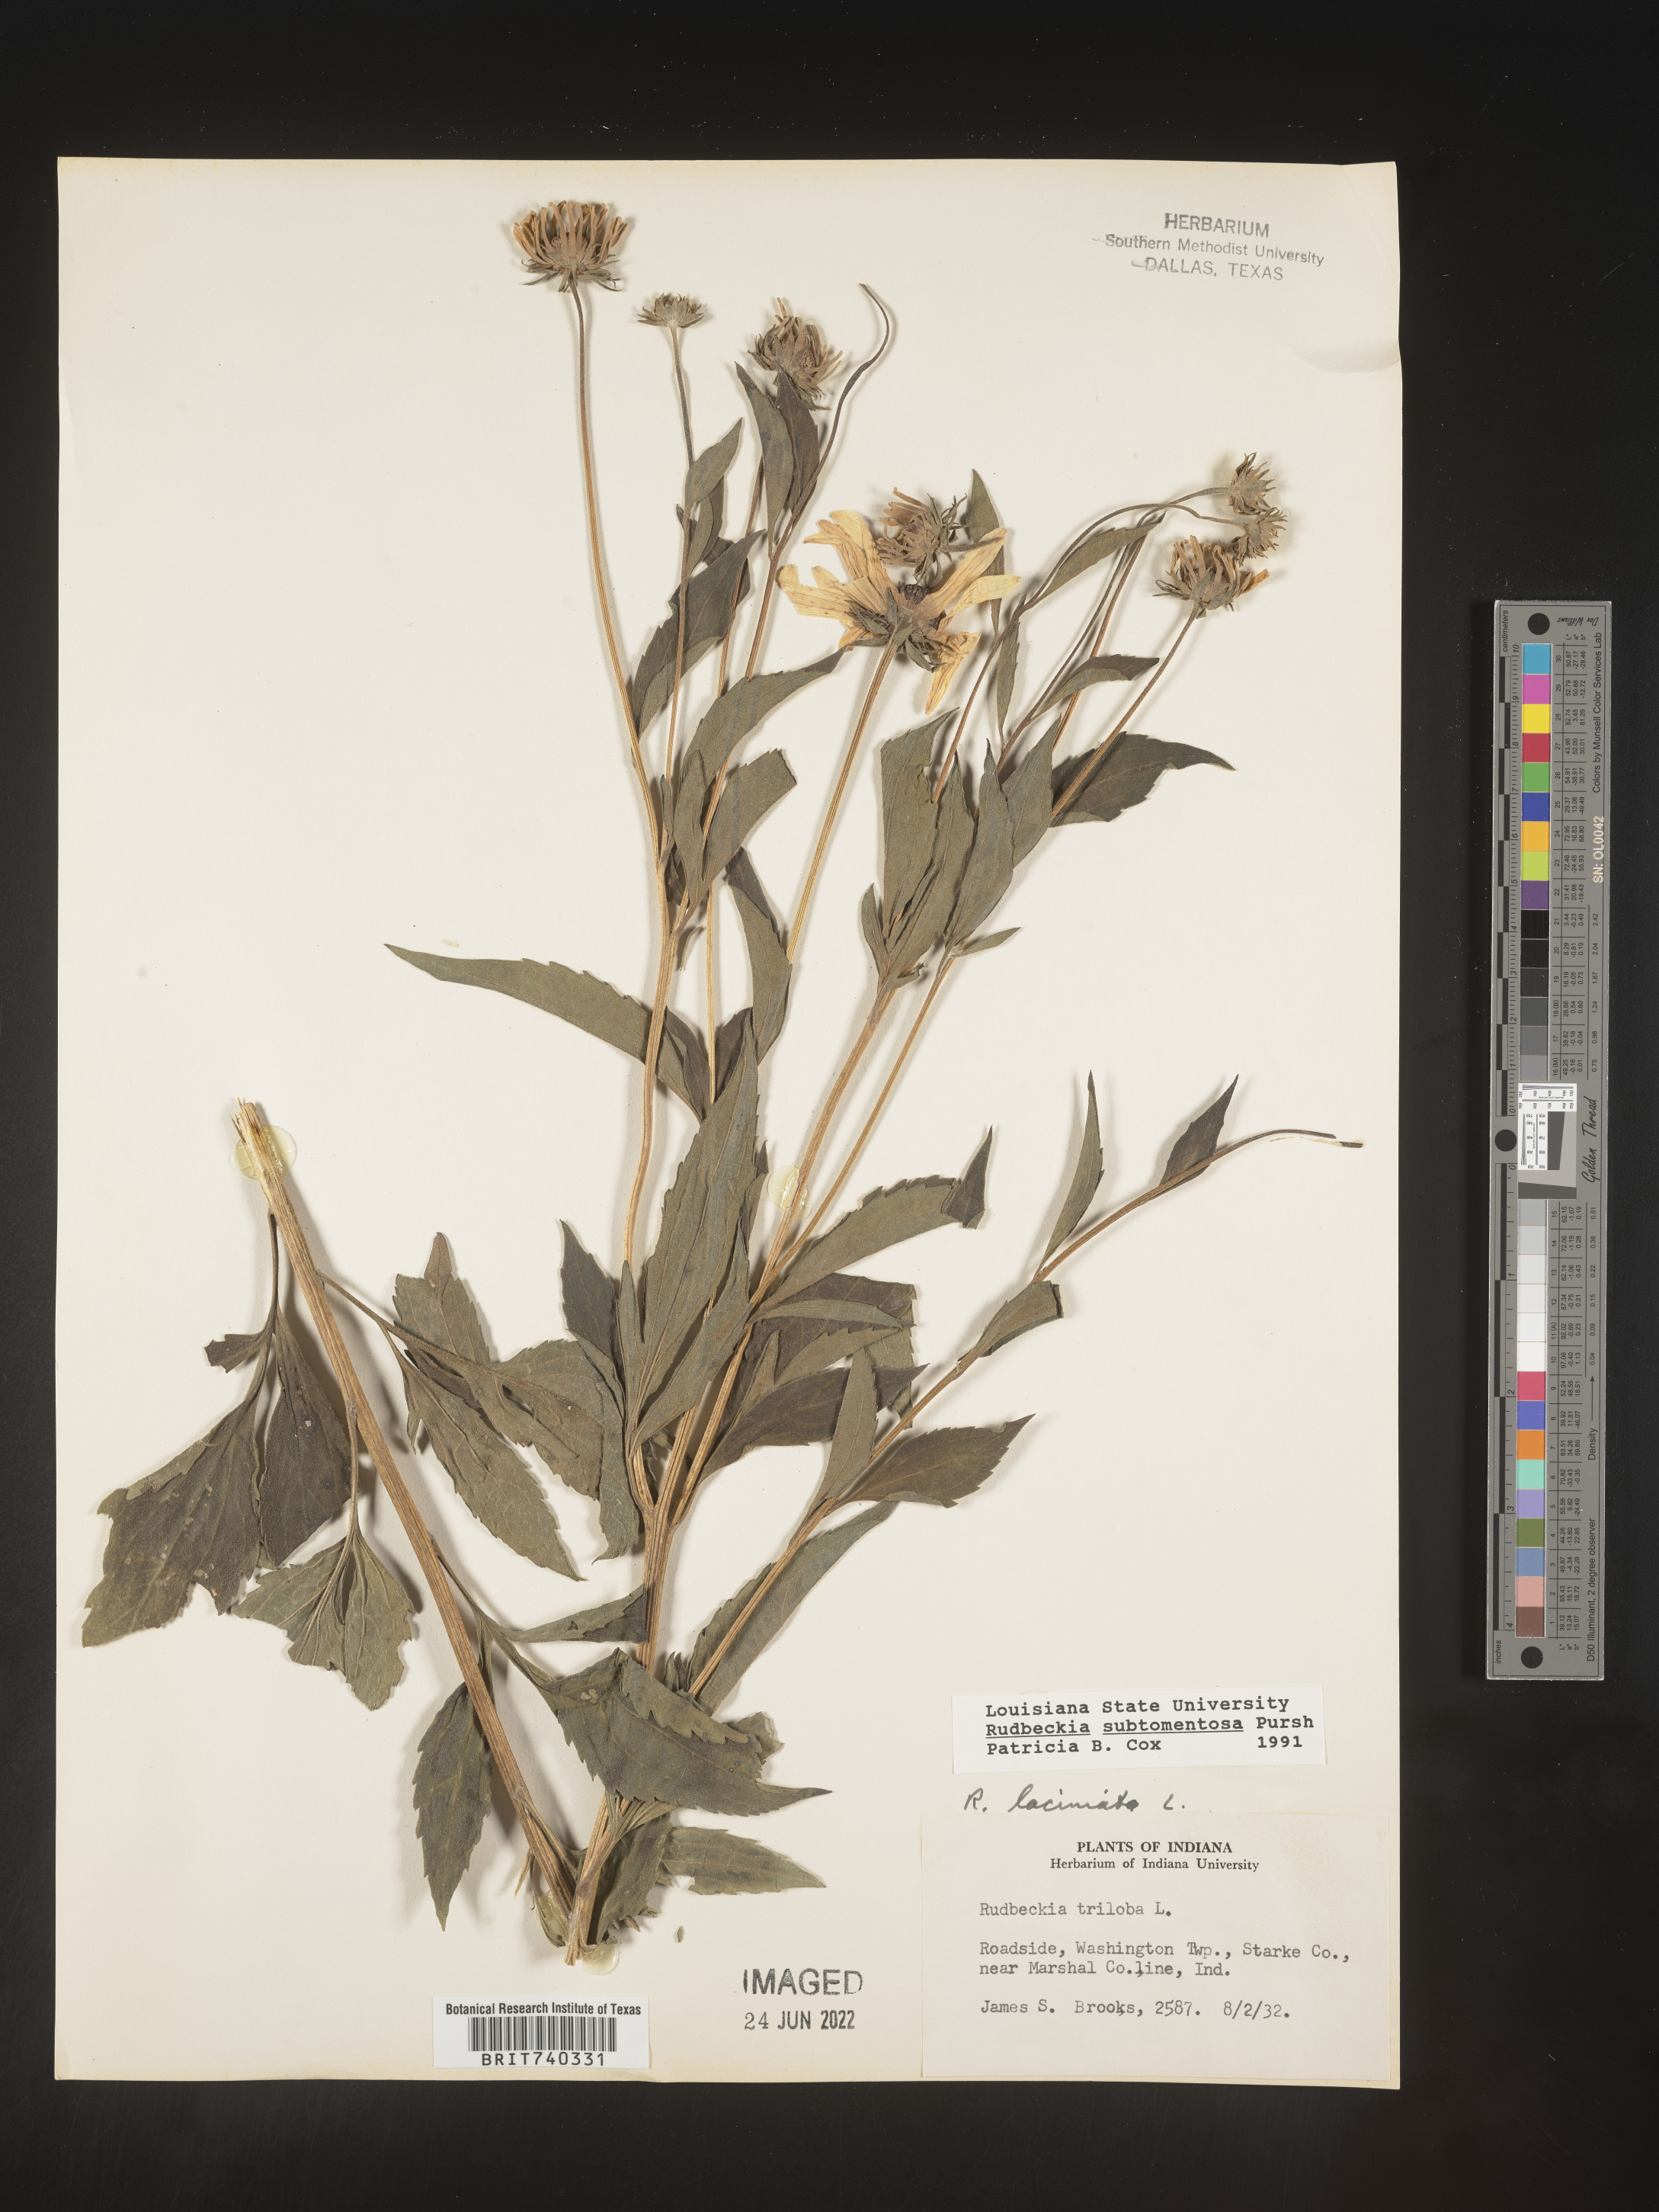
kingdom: Plantae
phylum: Tracheophyta
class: Magnoliopsida
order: Asterales
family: Asteraceae
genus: Rudbeckia
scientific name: Rudbeckia subtomentosa
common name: Sweet coneflower
